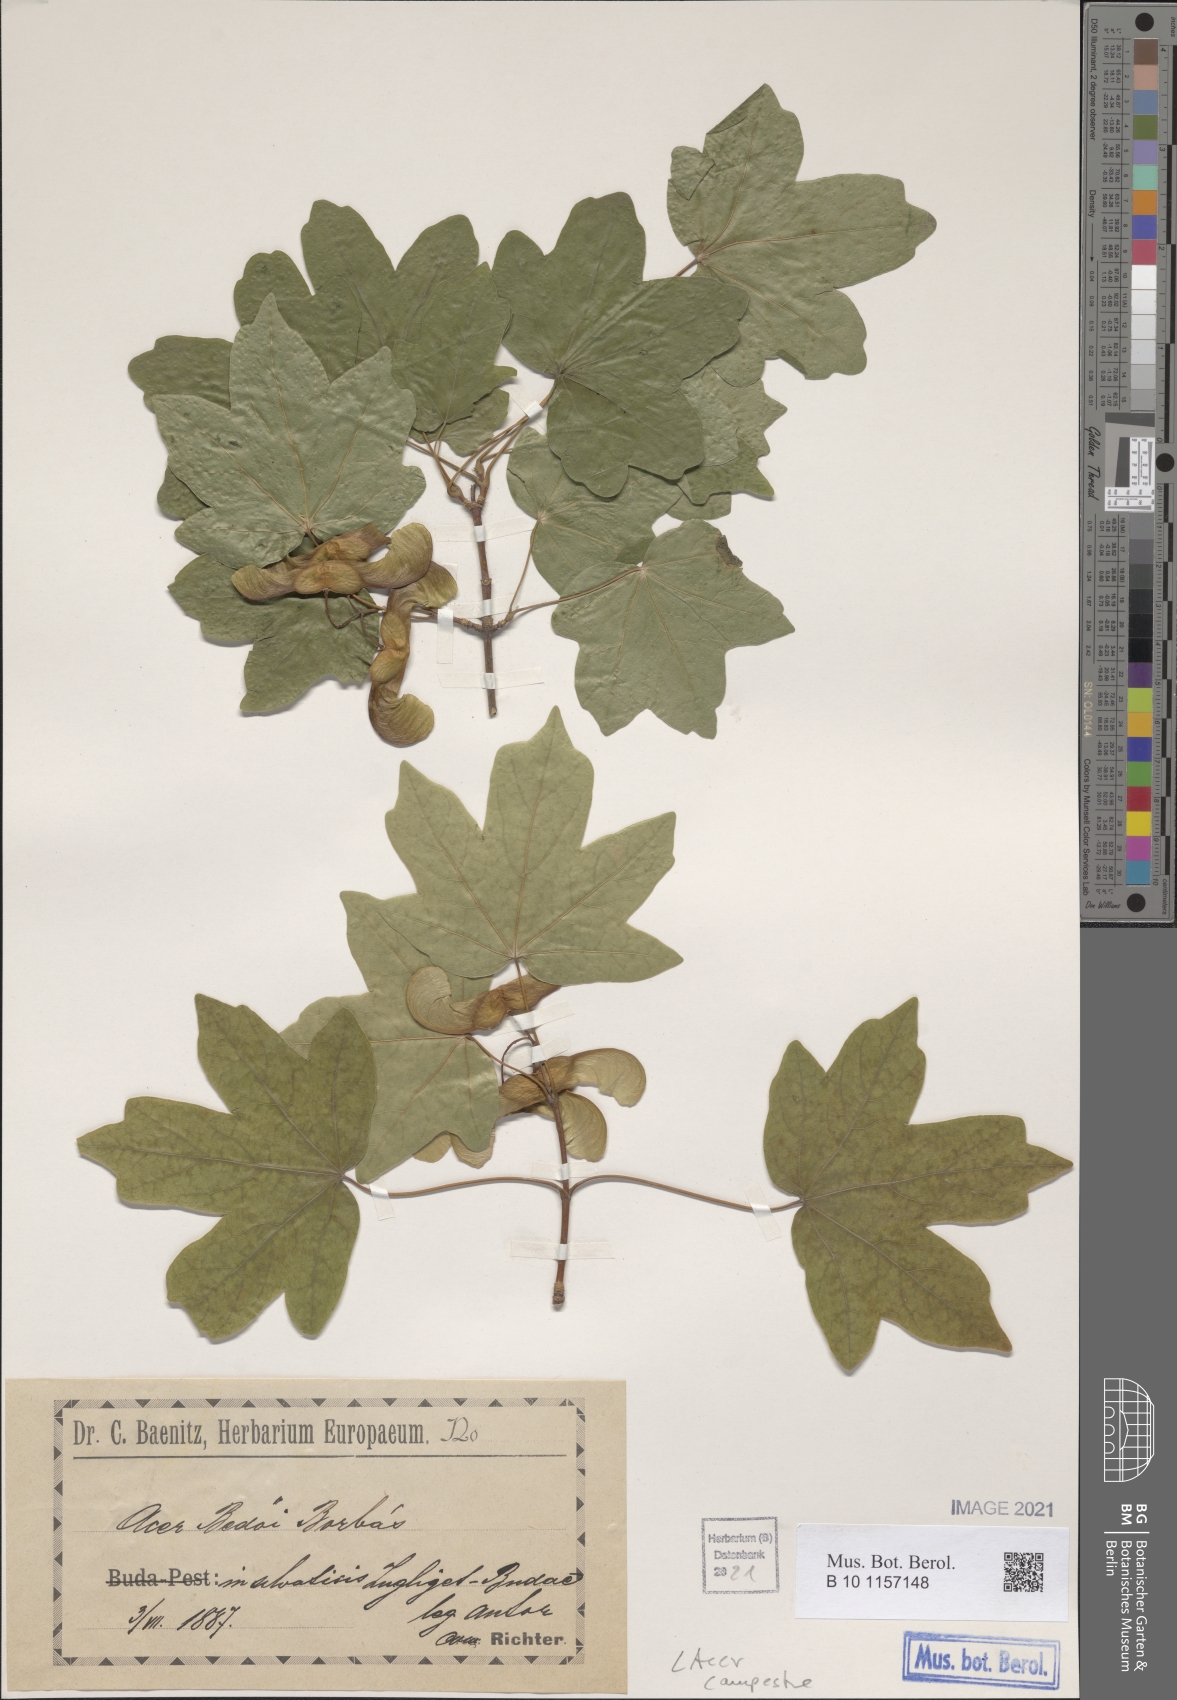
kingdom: Plantae
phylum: Tracheophyta
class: Magnoliopsida
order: Sapindales
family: Sapindaceae
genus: Acer
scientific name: Acer campestre
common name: Field maple
